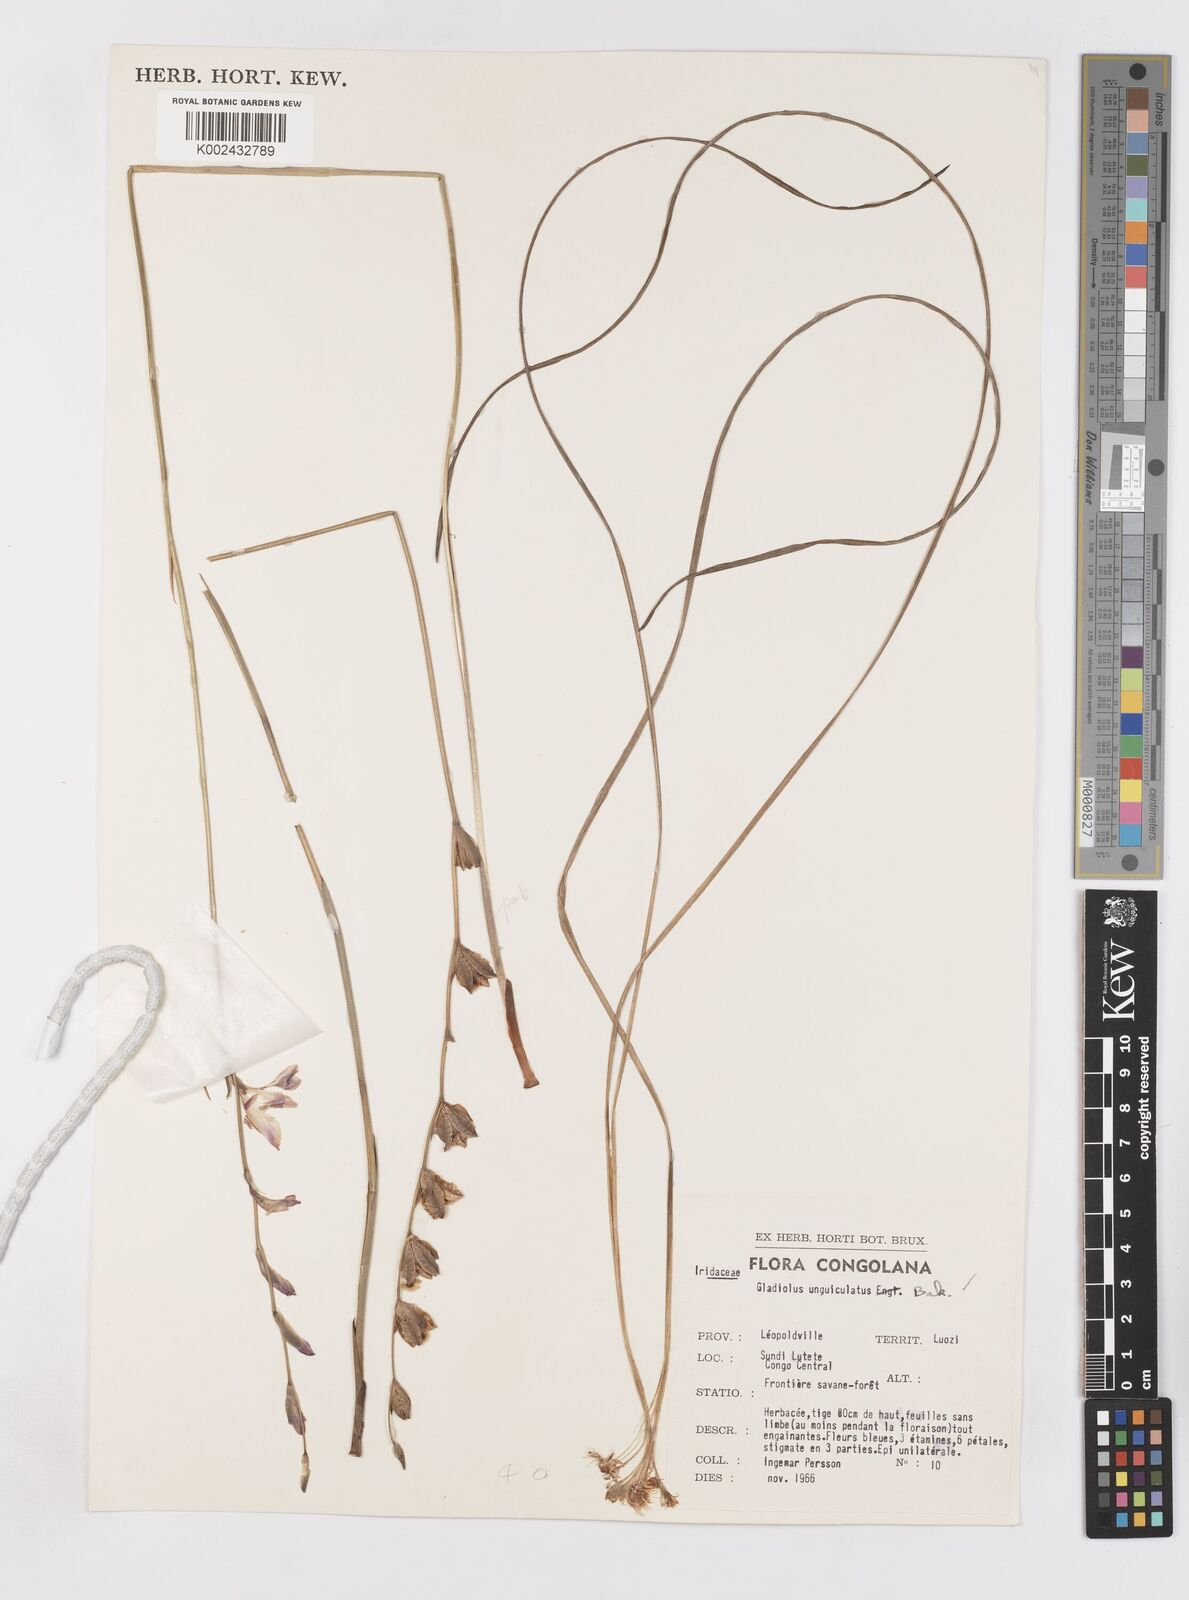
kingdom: Plantae
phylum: Tracheophyta
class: Liliopsida
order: Asparagales
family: Iridaceae
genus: Gladiolus
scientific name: Gladiolus unguiculatus
